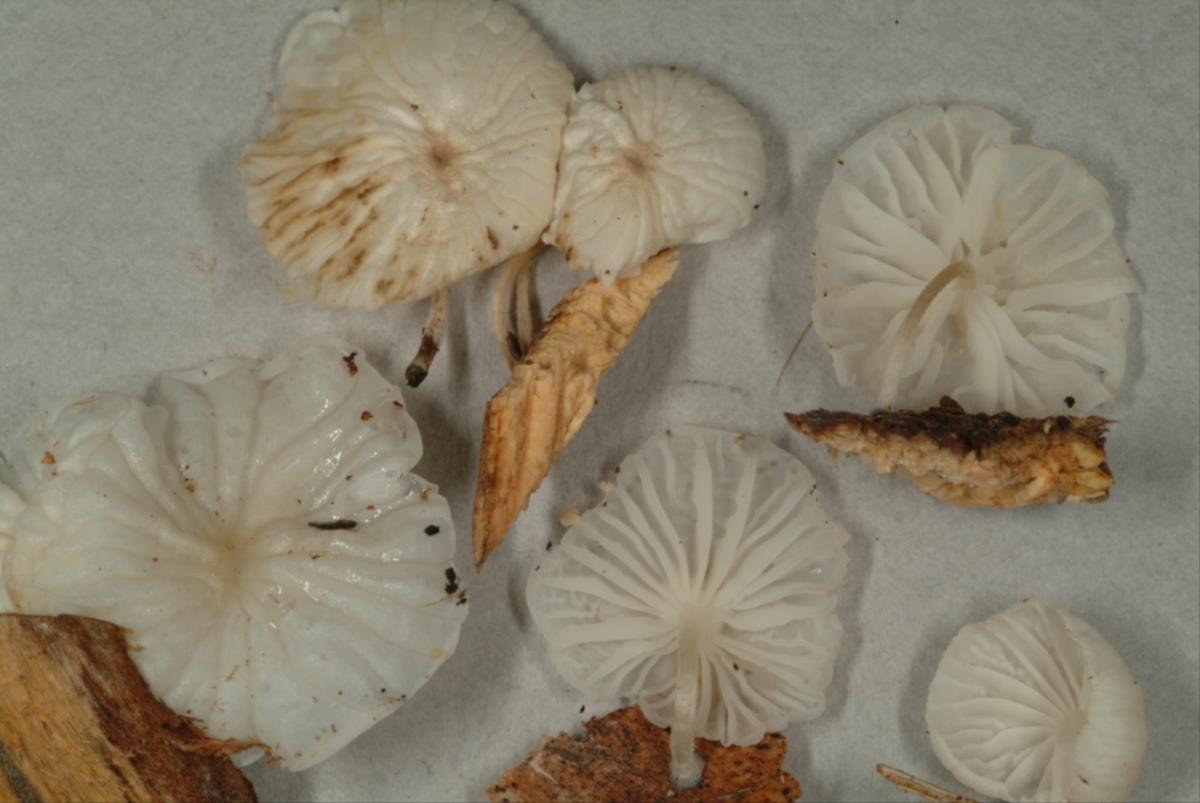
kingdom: Fungi
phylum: Basidiomycota
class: Agaricomycetes
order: Agaricales
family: Marasmiaceae
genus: Marasmius
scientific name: Marasmius
